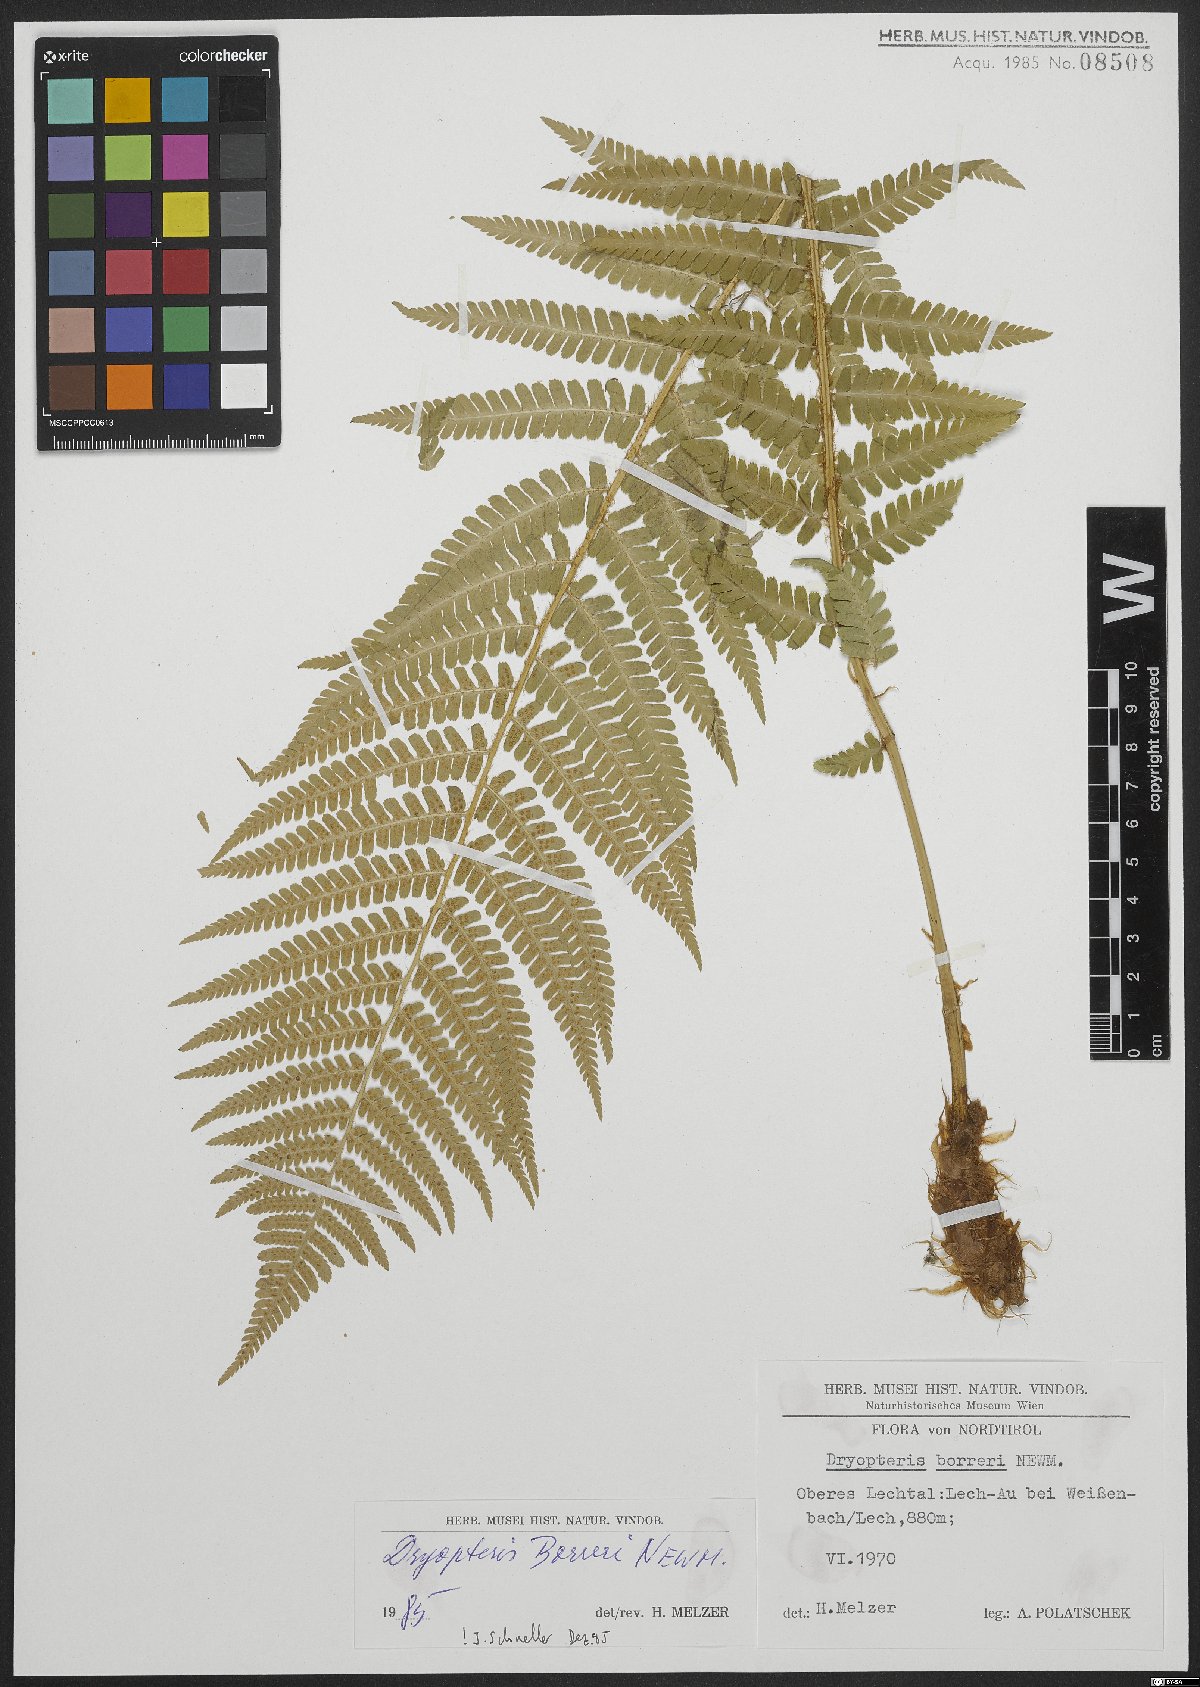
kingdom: Plantae
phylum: Tracheophyta
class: Polypodiopsida
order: Polypodiales
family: Dryopteridaceae
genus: Dryopteris
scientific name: Dryopteris borreri
